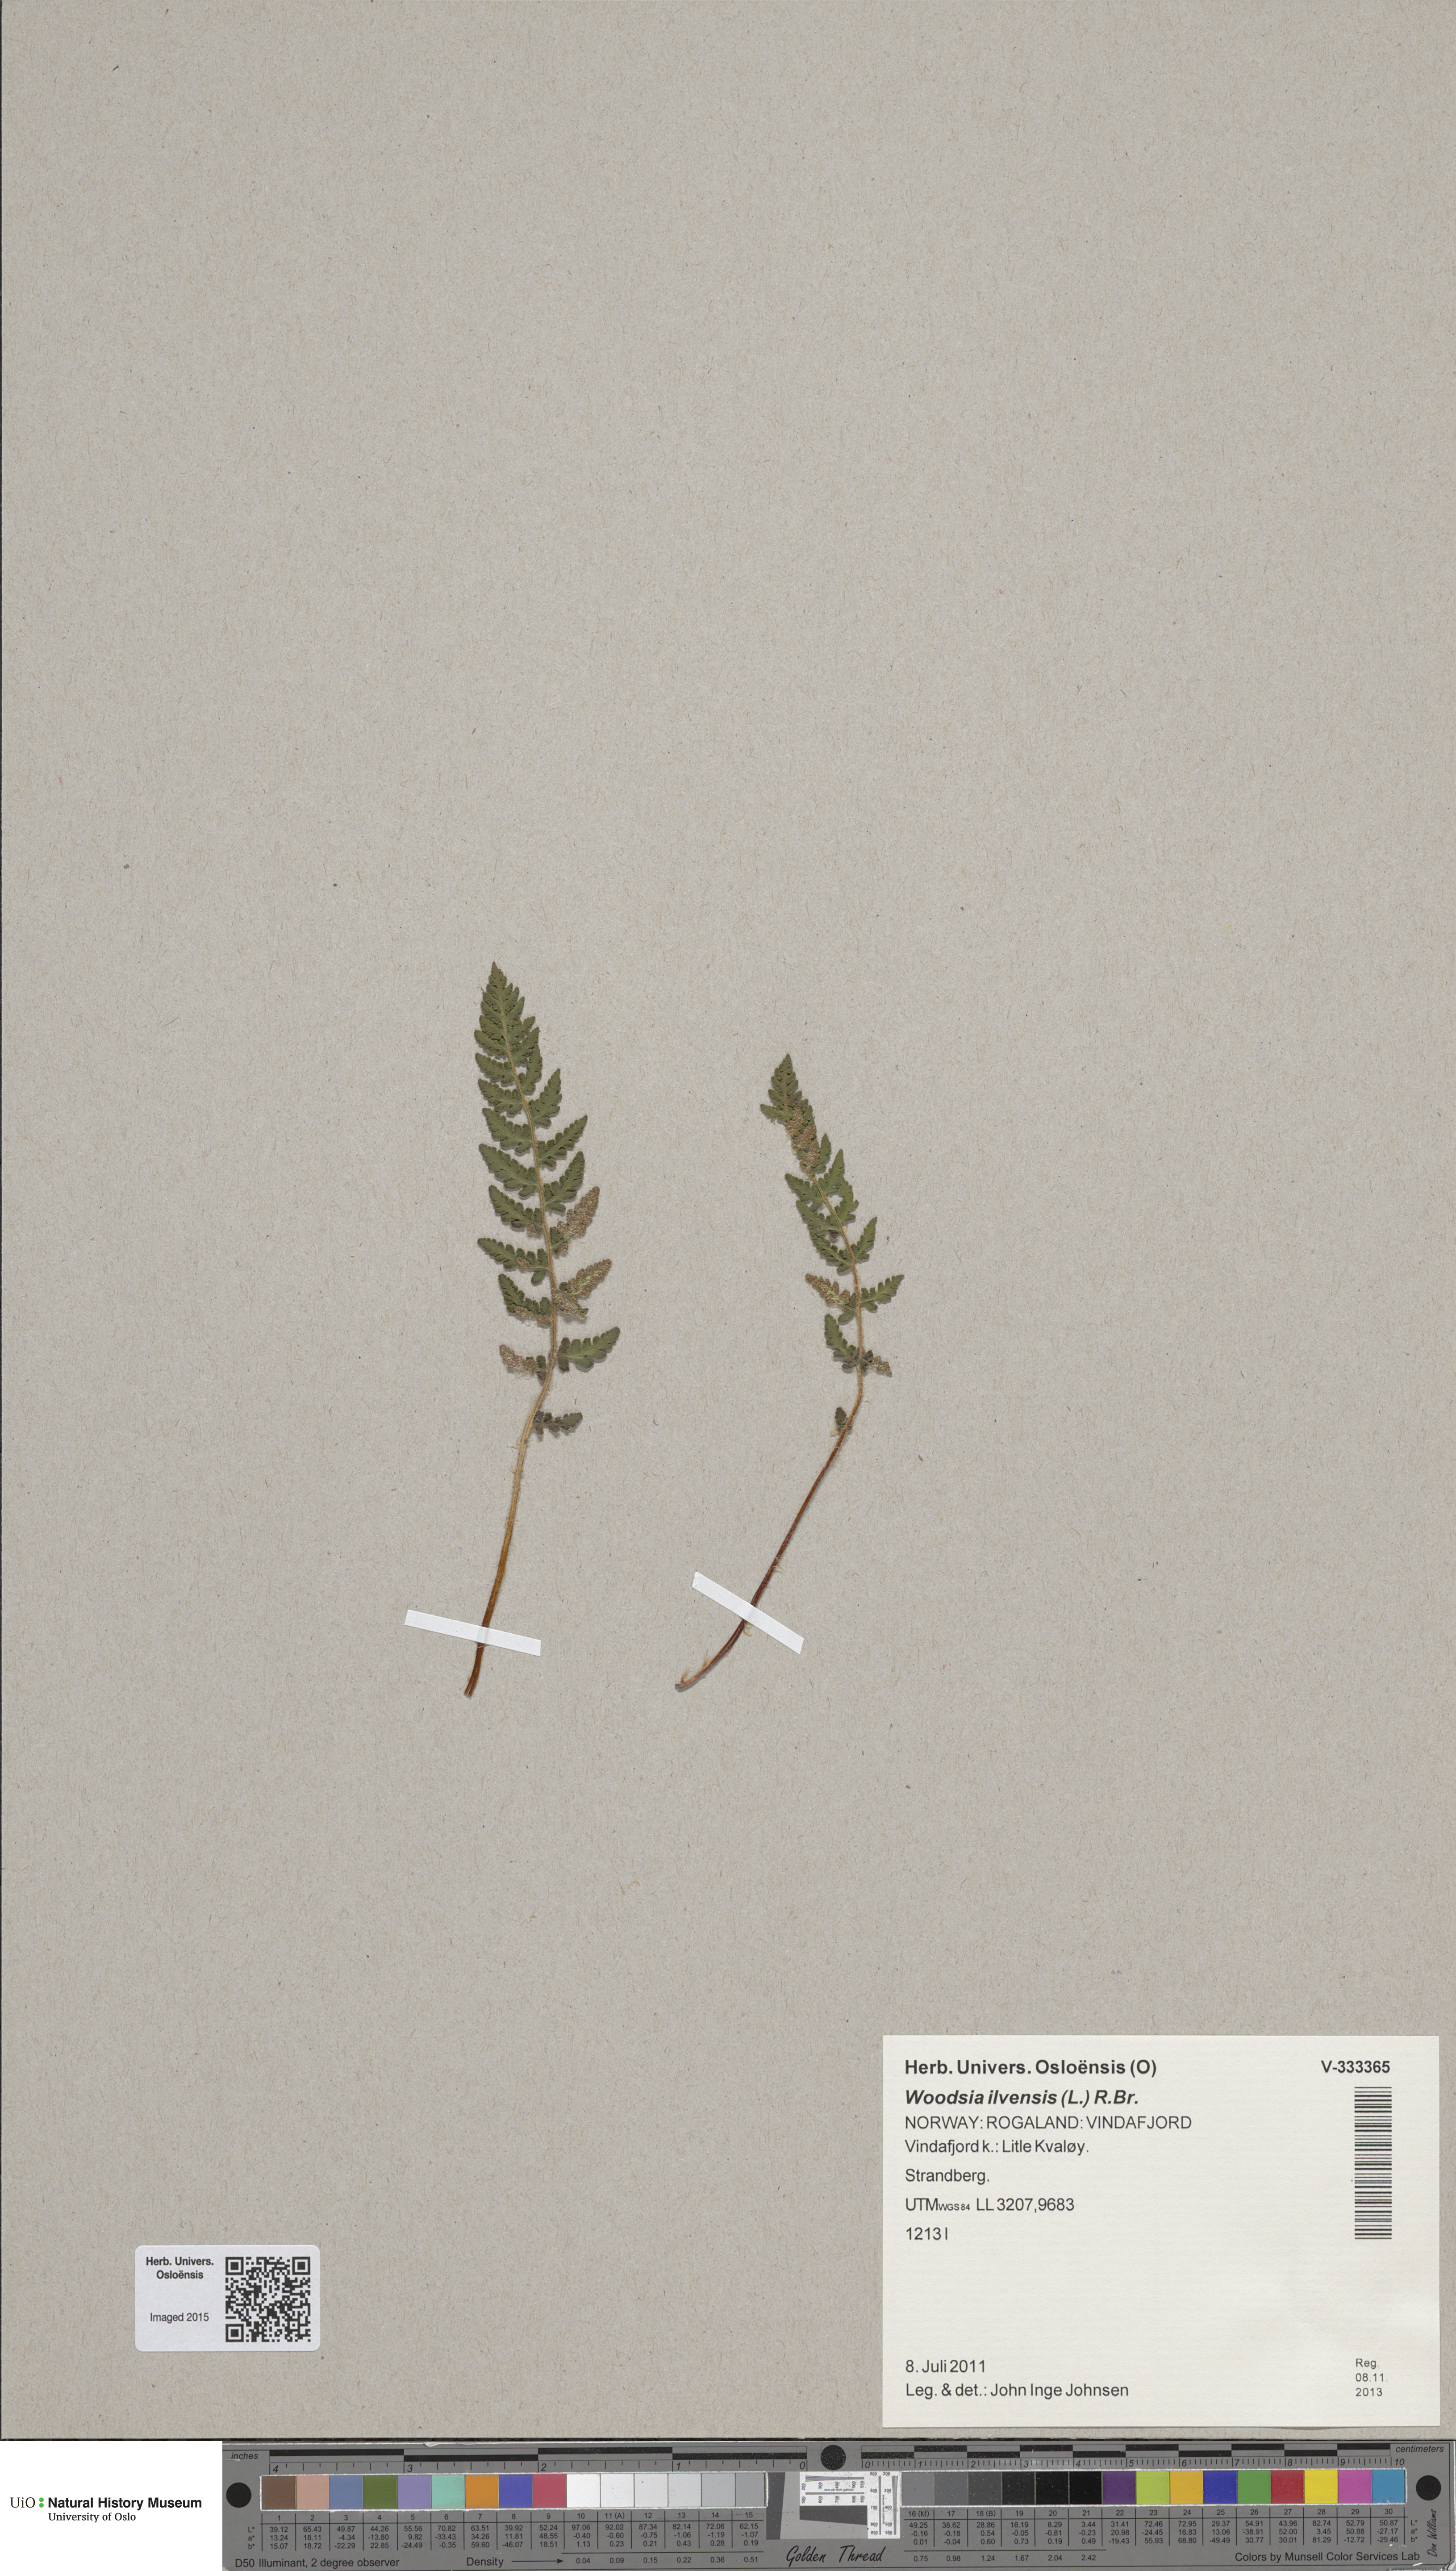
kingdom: Plantae
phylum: Tracheophyta
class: Polypodiopsida
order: Polypodiales
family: Woodsiaceae
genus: Woodsia
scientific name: Woodsia ilvensis
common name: Fragrant woodsia
